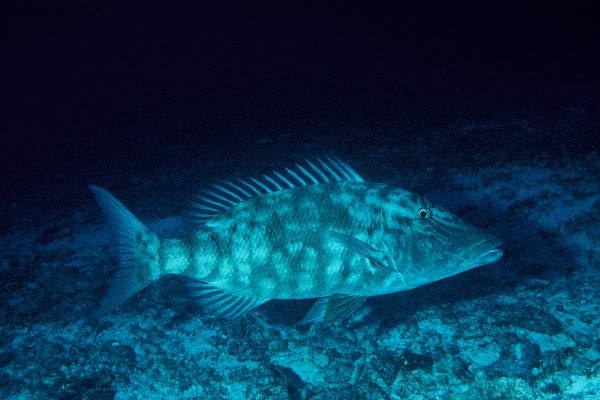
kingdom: Animalia
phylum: Chordata
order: Perciformes
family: Lethrinidae
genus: Lethrinus
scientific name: Lethrinus olivaceus
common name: Longnose emperor
